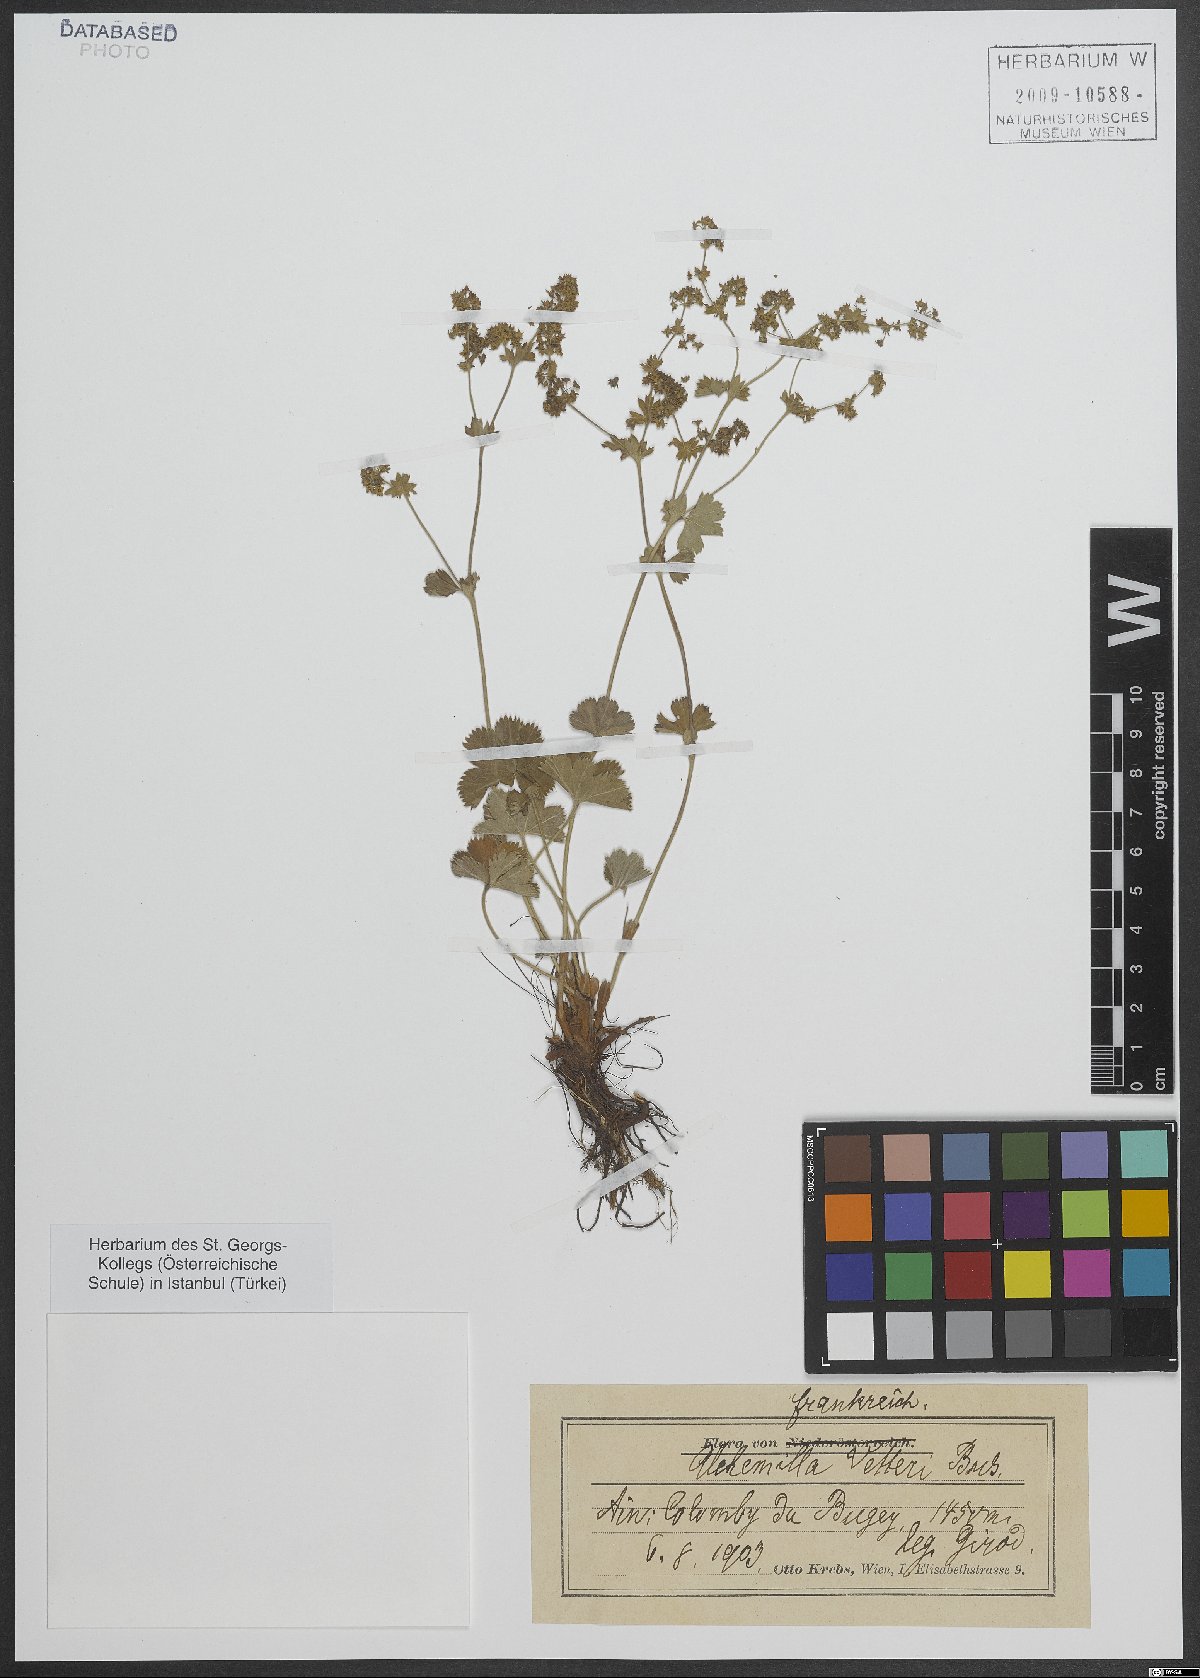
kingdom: Plantae
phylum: Tracheophyta
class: Magnoliopsida
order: Rosales
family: Rosaceae
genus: Alchemilla
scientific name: Alchemilla vetteri
